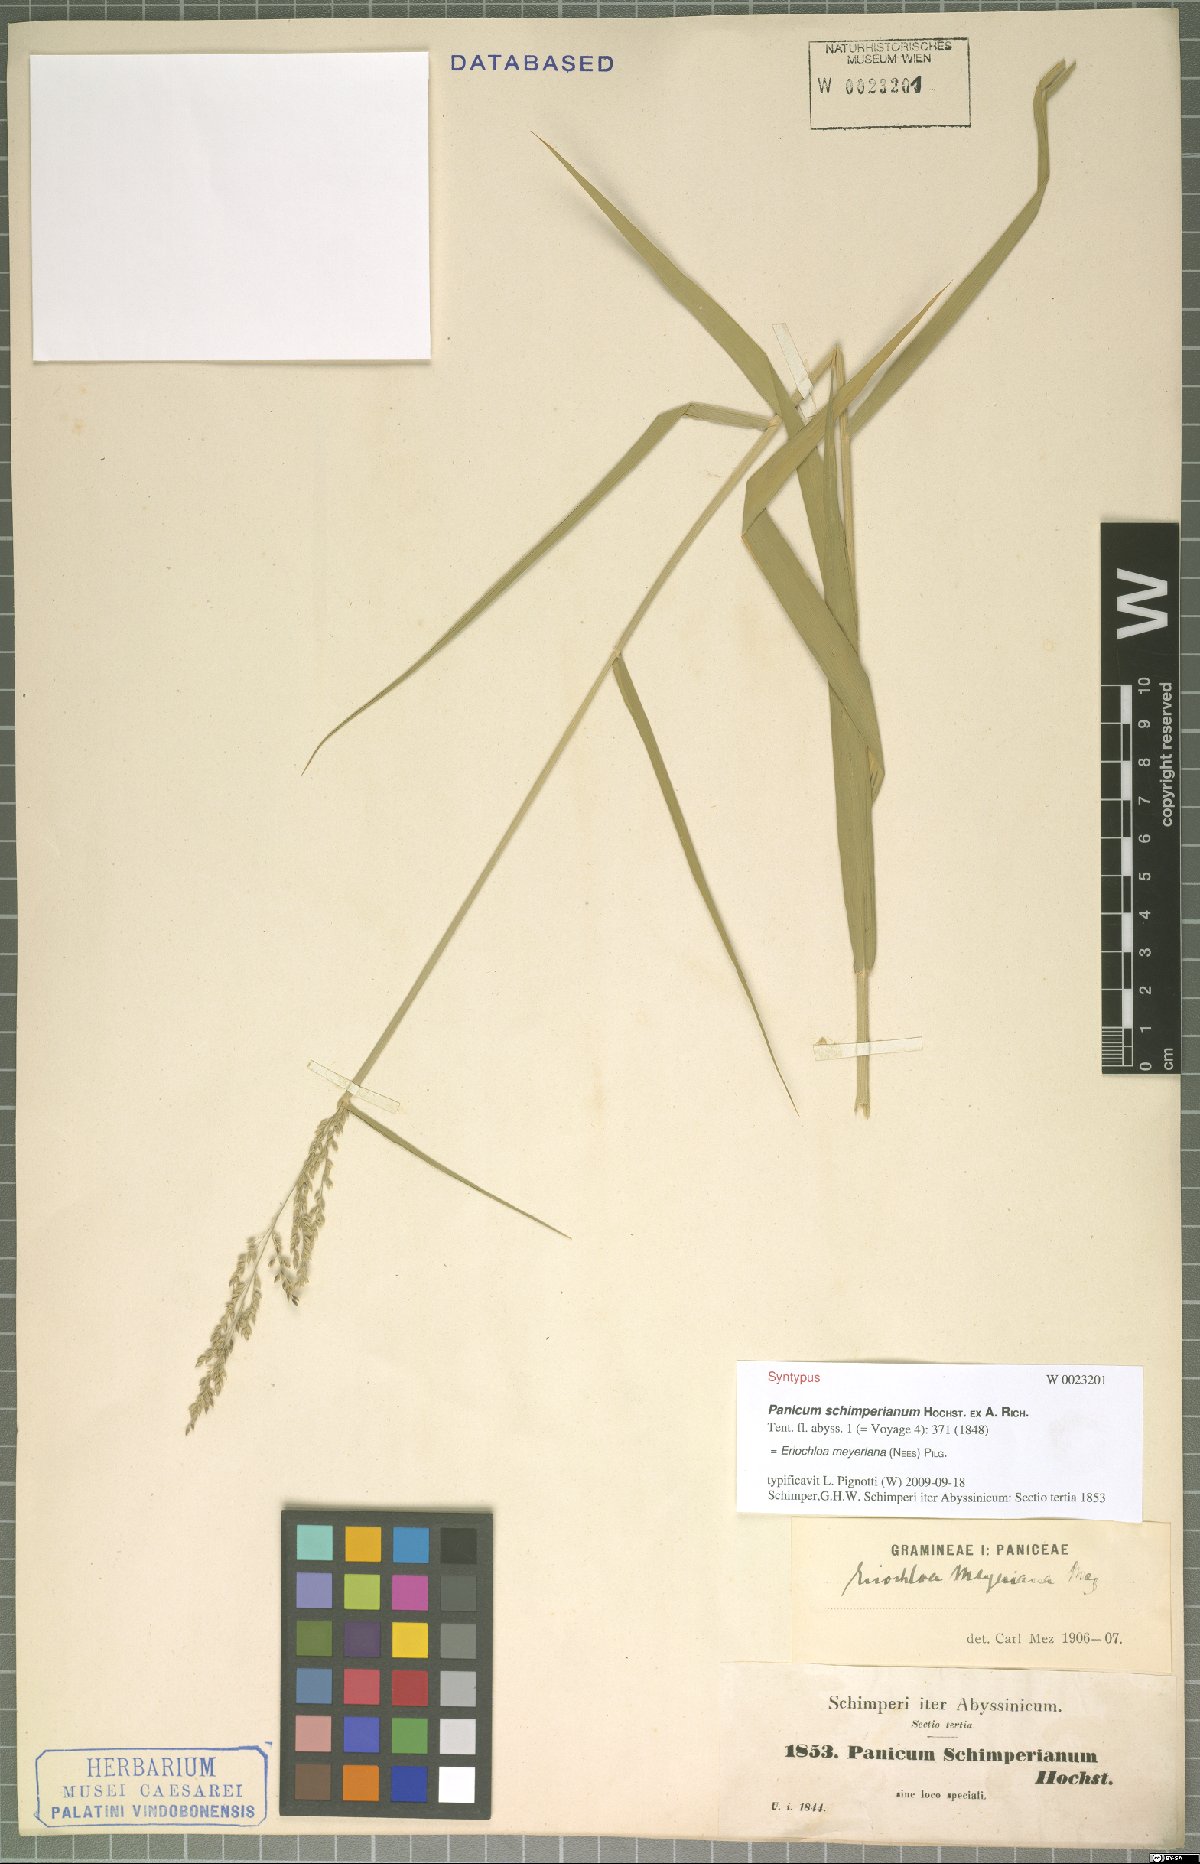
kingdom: Plantae
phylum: Tracheophyta
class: Liliopsida
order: Poales
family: Poaceae
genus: Eriochloa
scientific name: Eriochloa meyeriana
